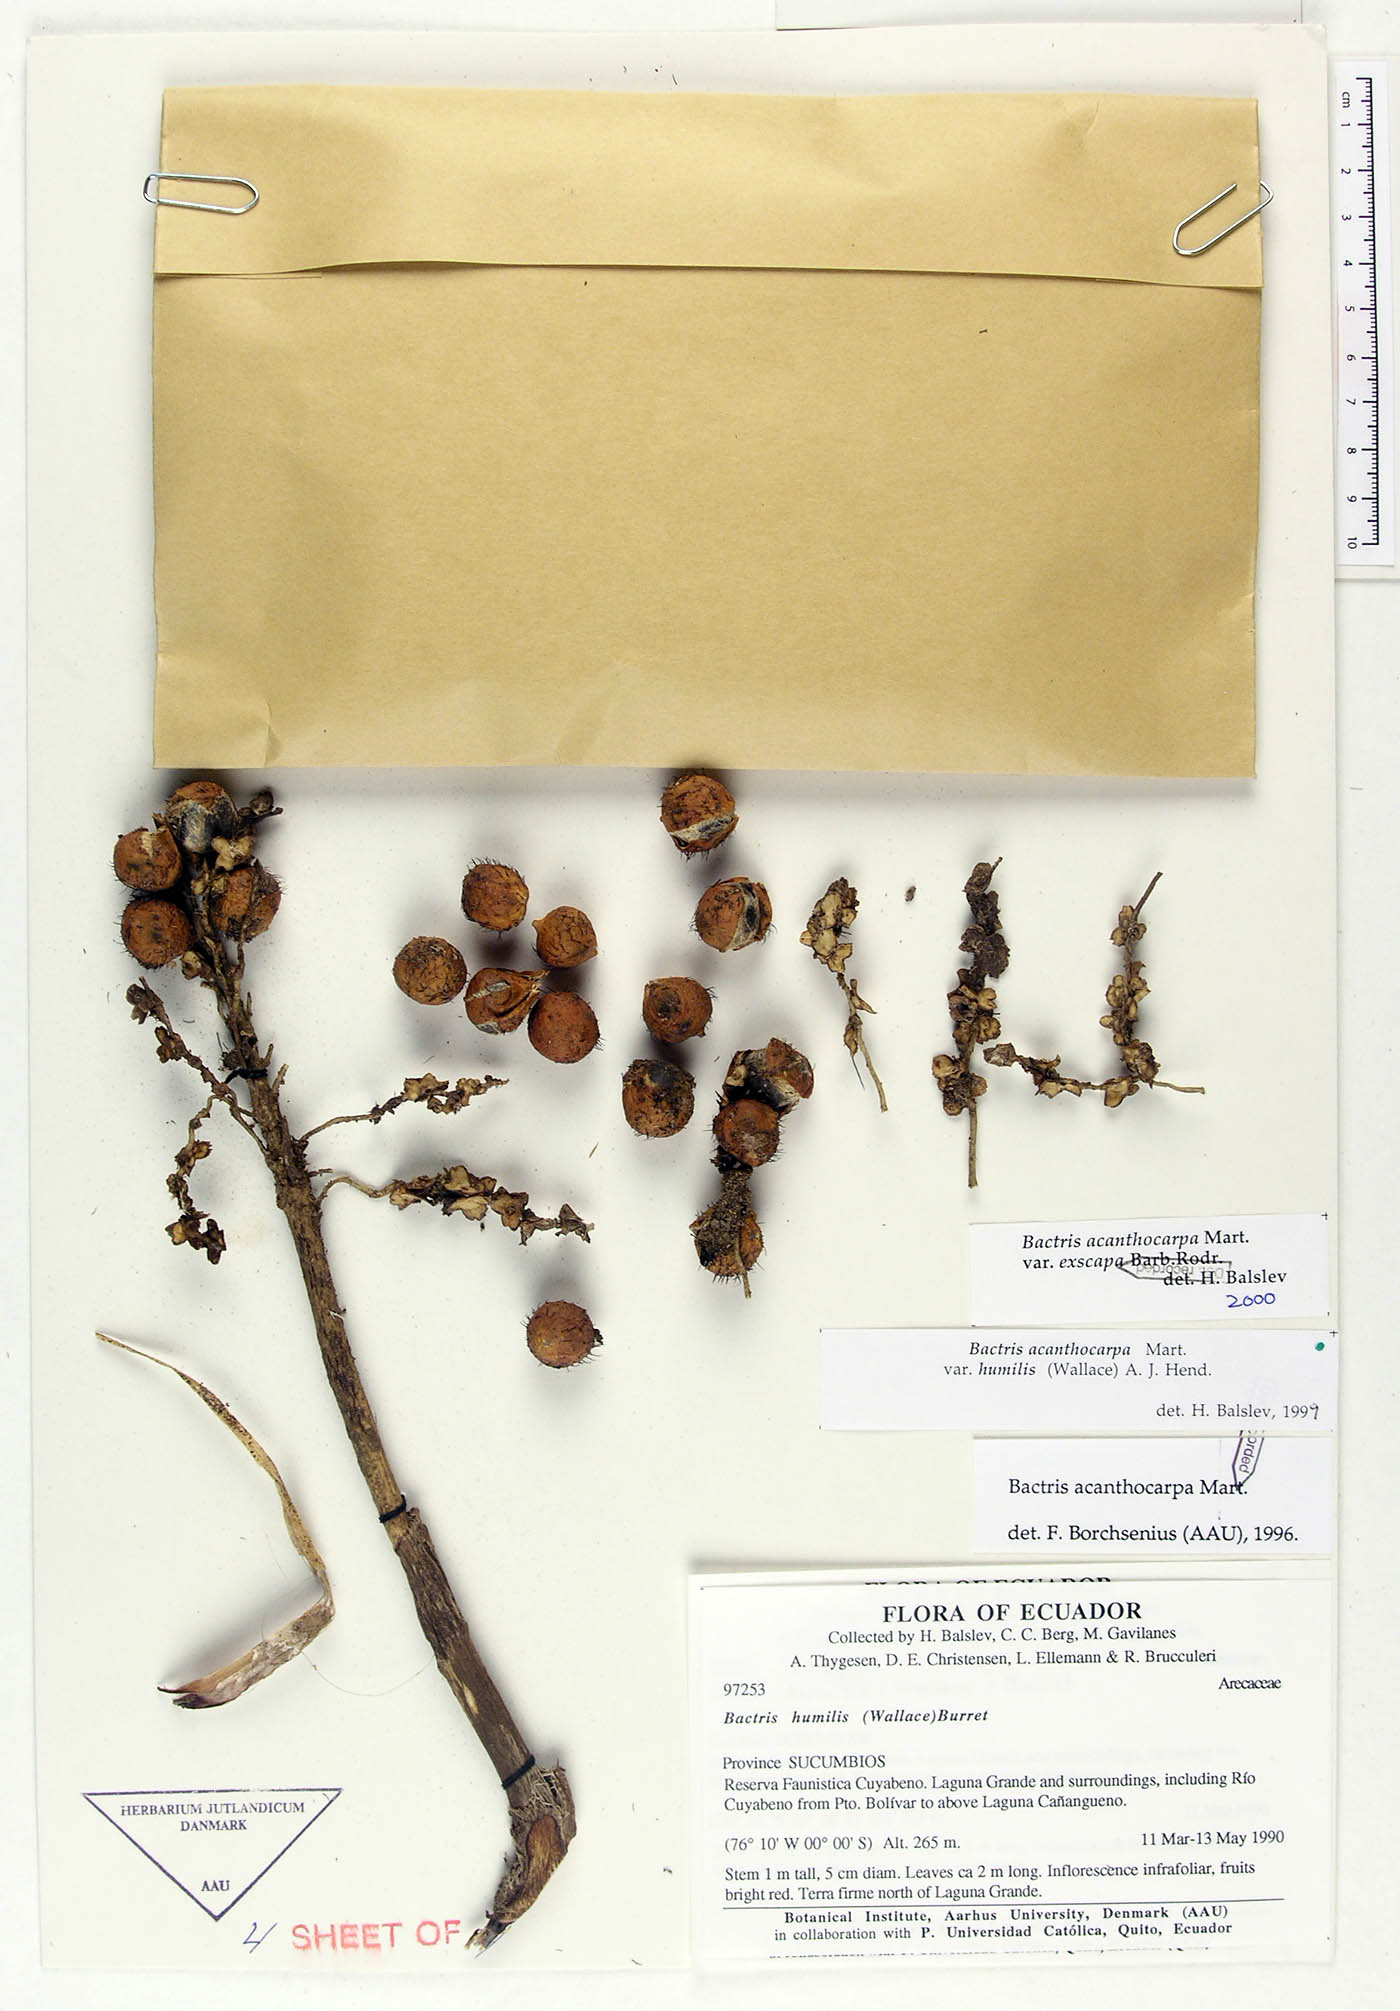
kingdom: Plantae
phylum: Tracheophyta
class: Liliopsida
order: Arecales
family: Arecaceae
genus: Bactris
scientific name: Bactris acanthocarpa
